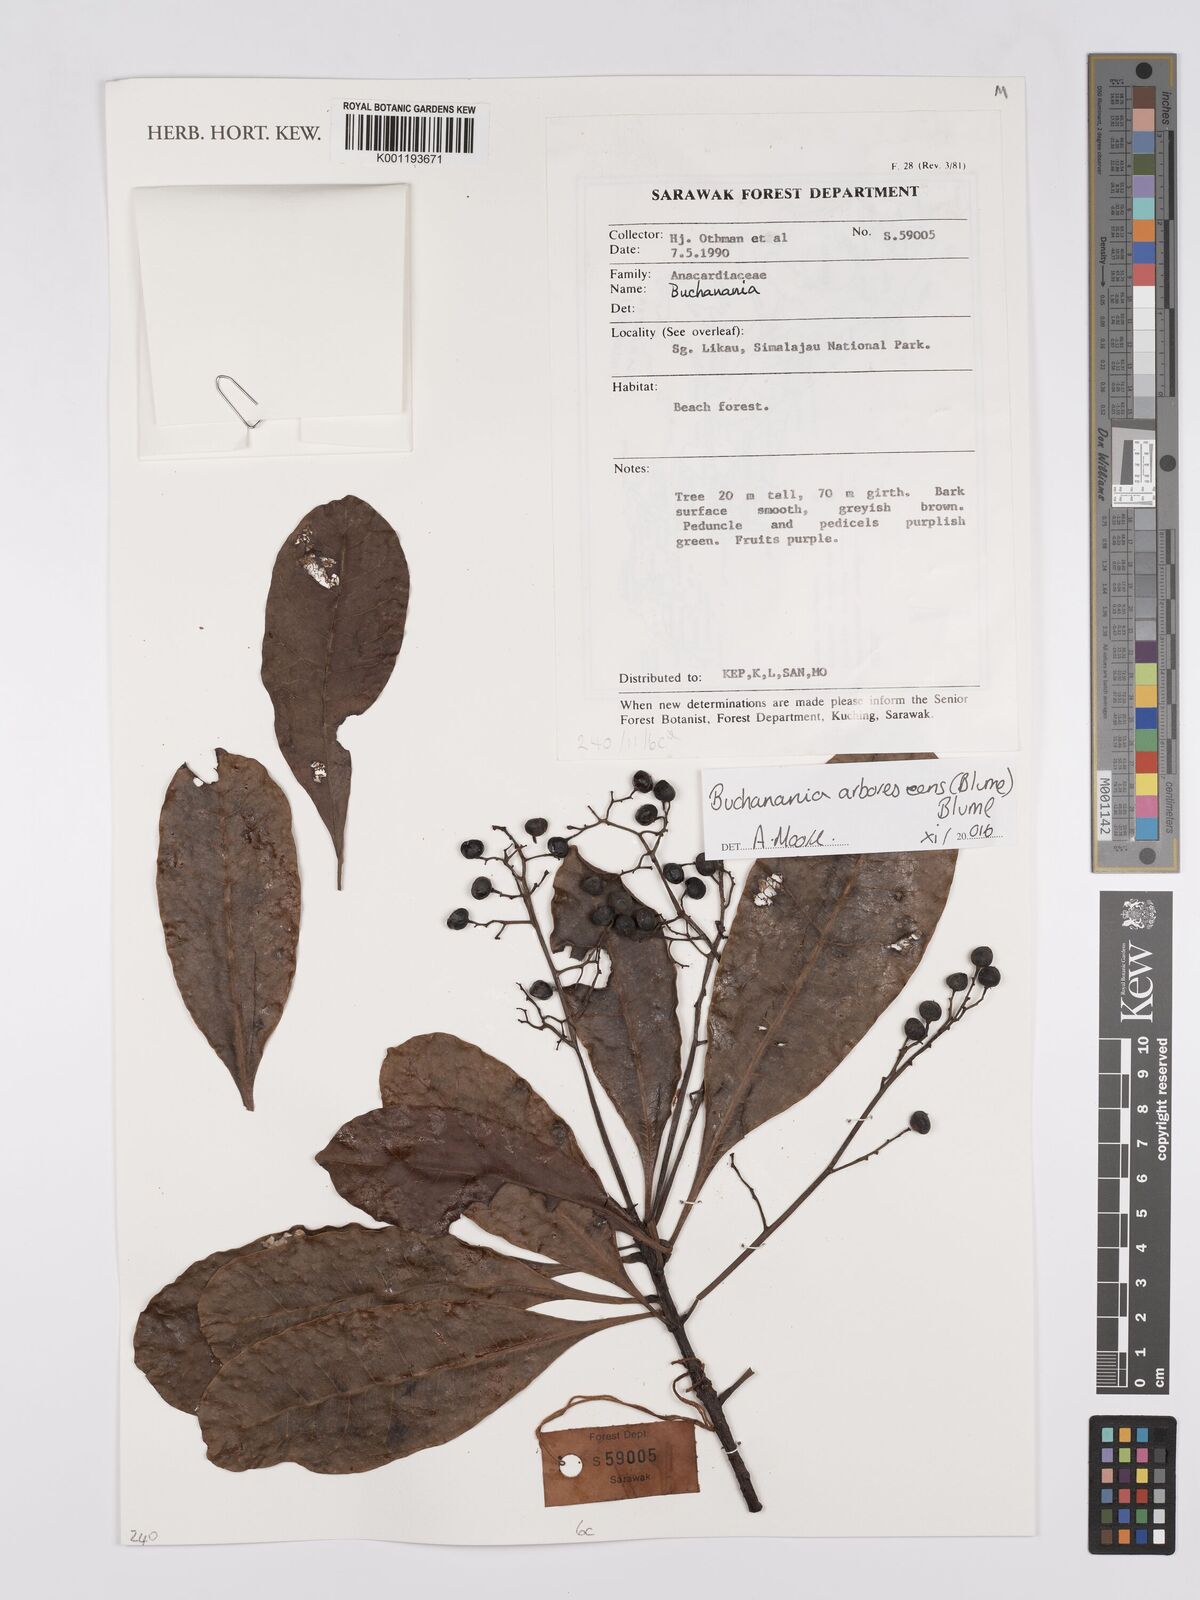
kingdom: Plantae
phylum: Tracheophyta
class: Magnoliopsida
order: Sapindales
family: Anacardiaceae
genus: Buchanania
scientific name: Buchanania arborescens
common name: Sparrow’s mango
